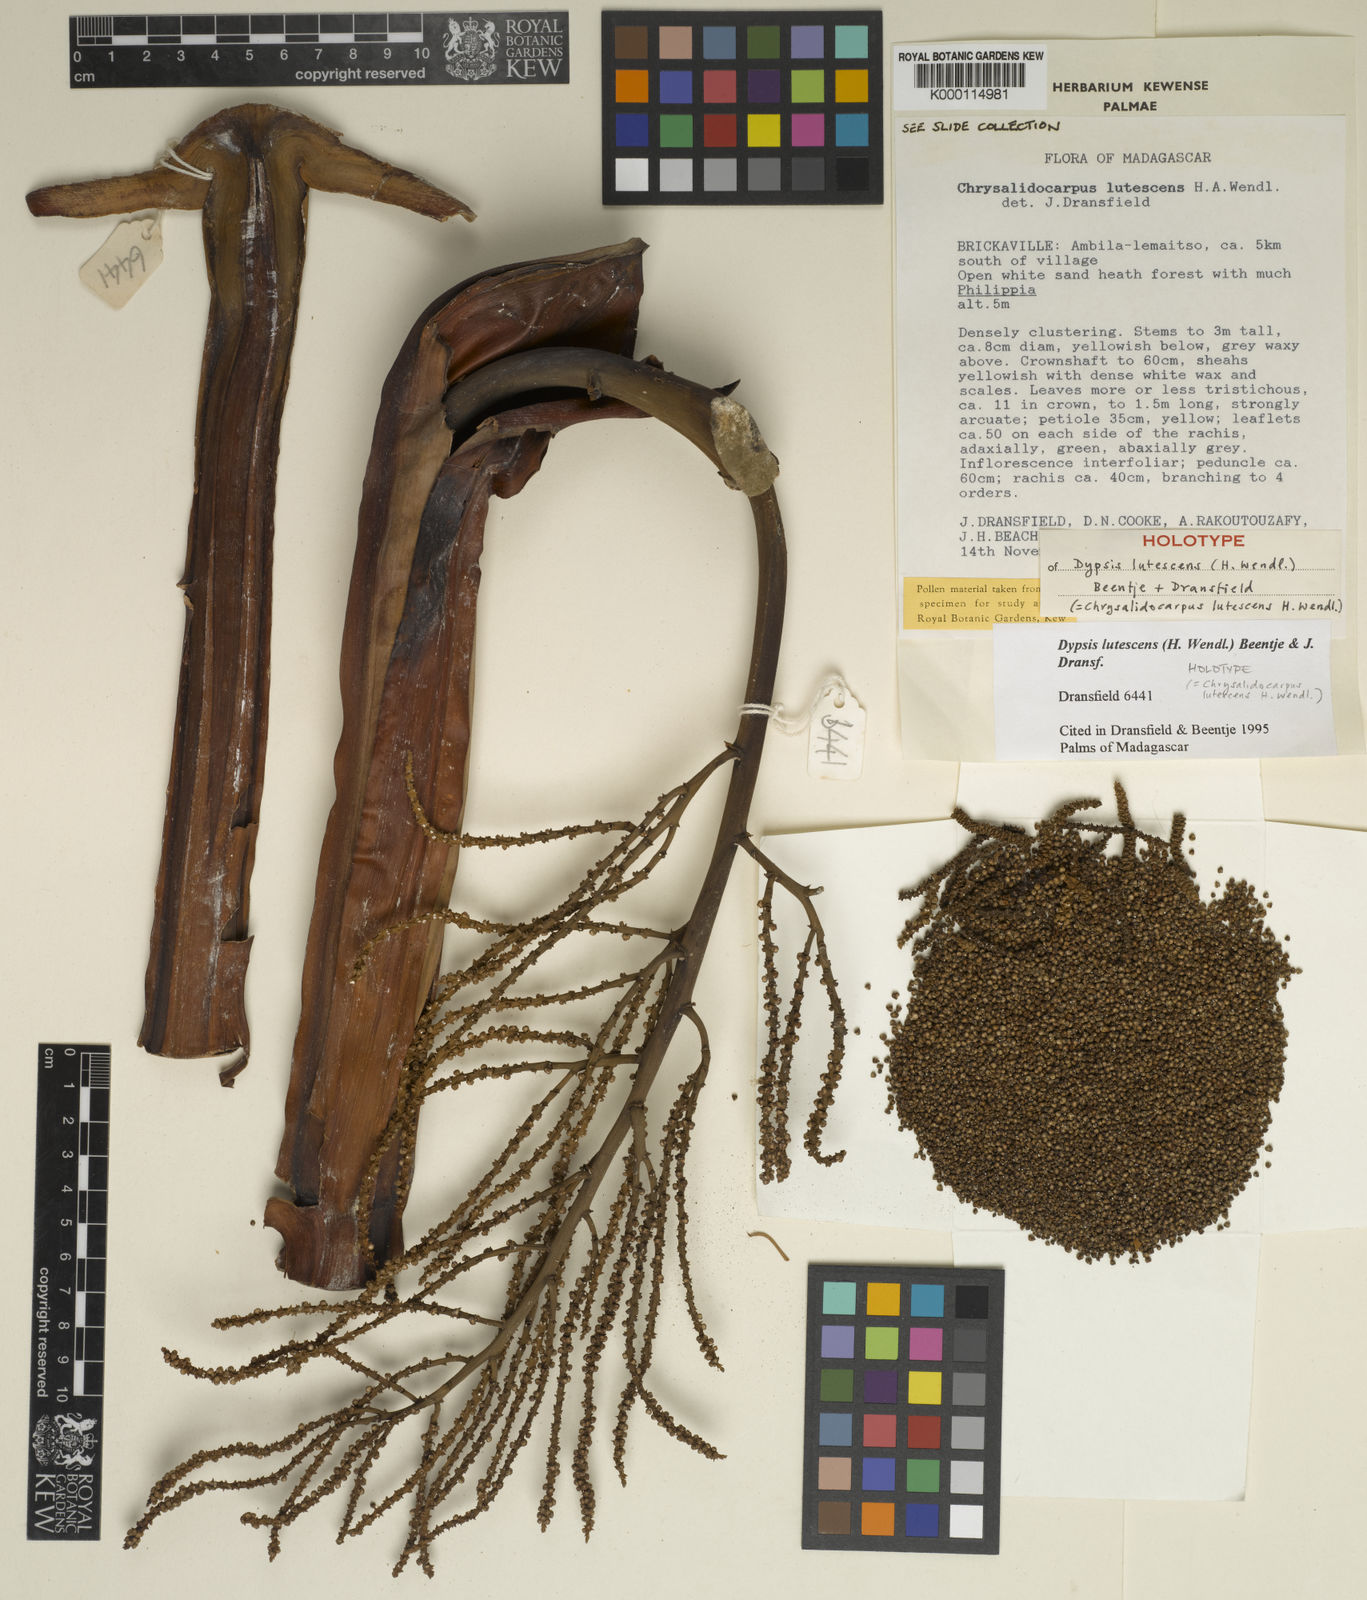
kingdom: Plantae
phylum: Tracheophyta
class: Liliopsida
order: Arecales
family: Arecaceae
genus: Dypsis
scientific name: Dypsis lutescens
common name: Yellow butterfly palm
